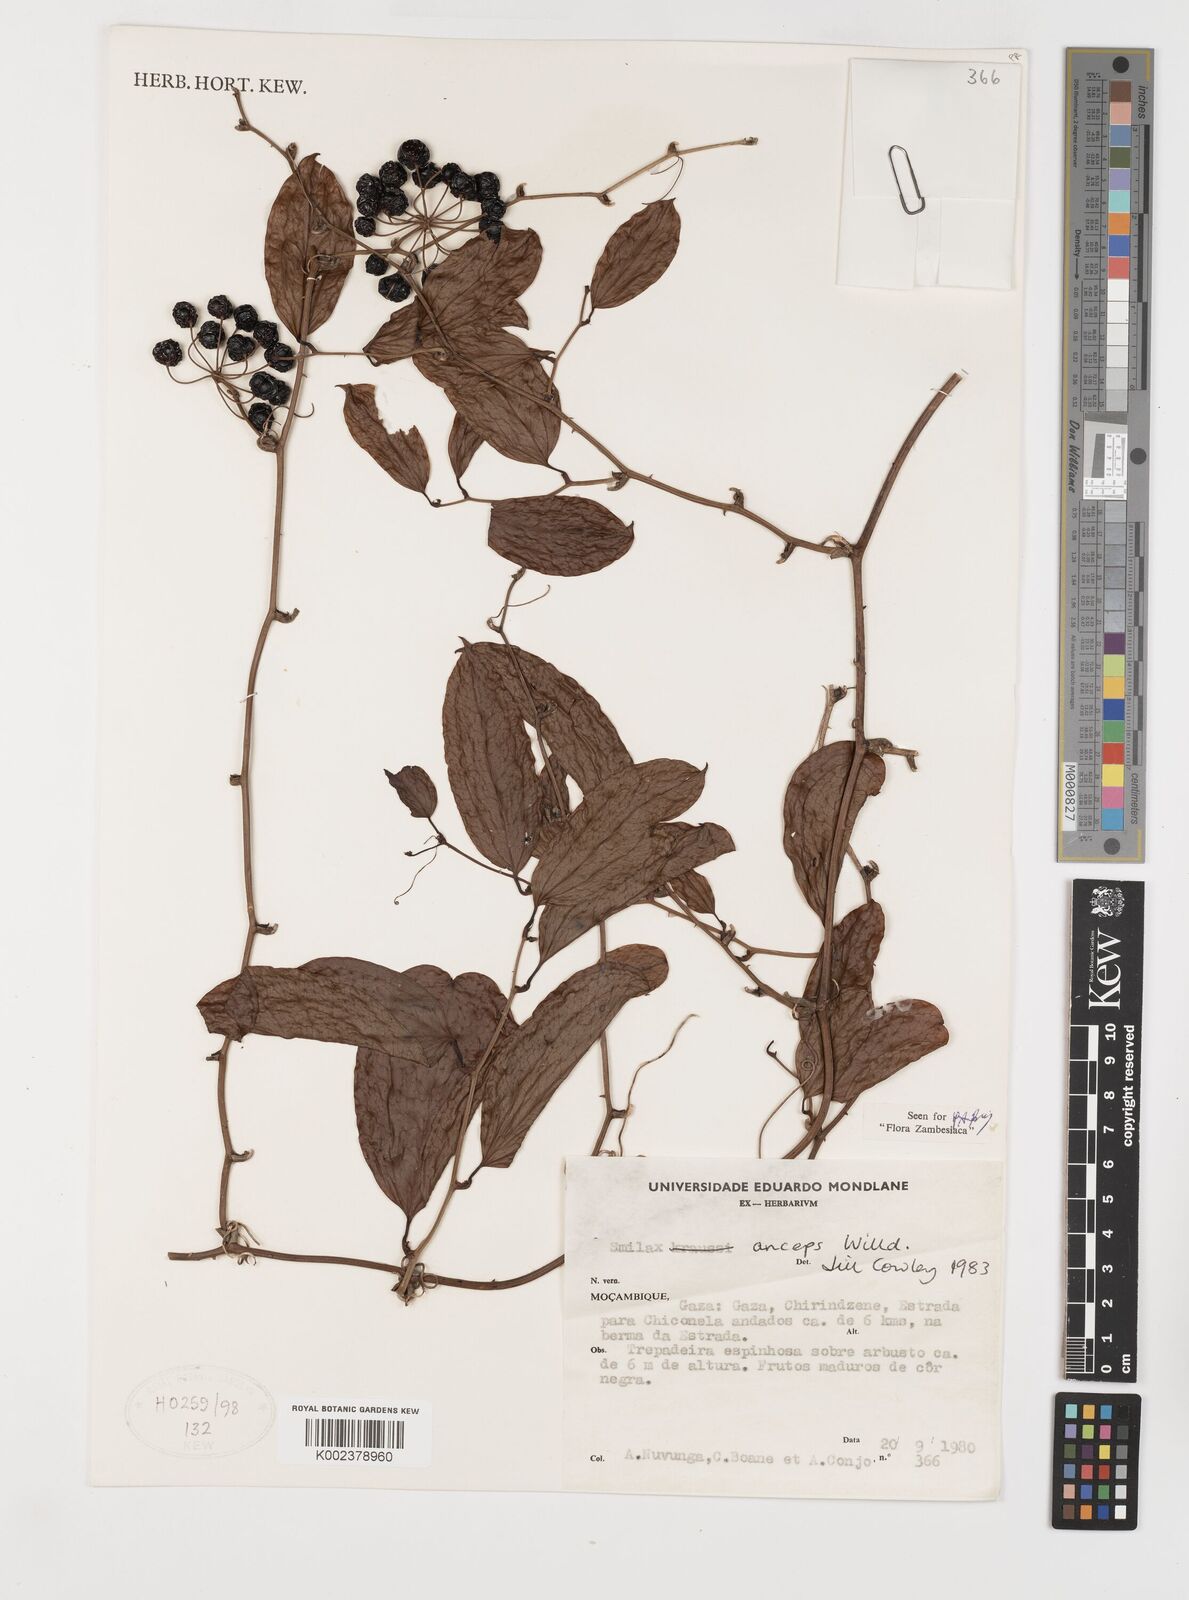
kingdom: Plantae
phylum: Tracheophyta
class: Liliopsida
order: Liliales
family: Smilacaceae
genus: Smilax
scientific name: Smilax anceps
